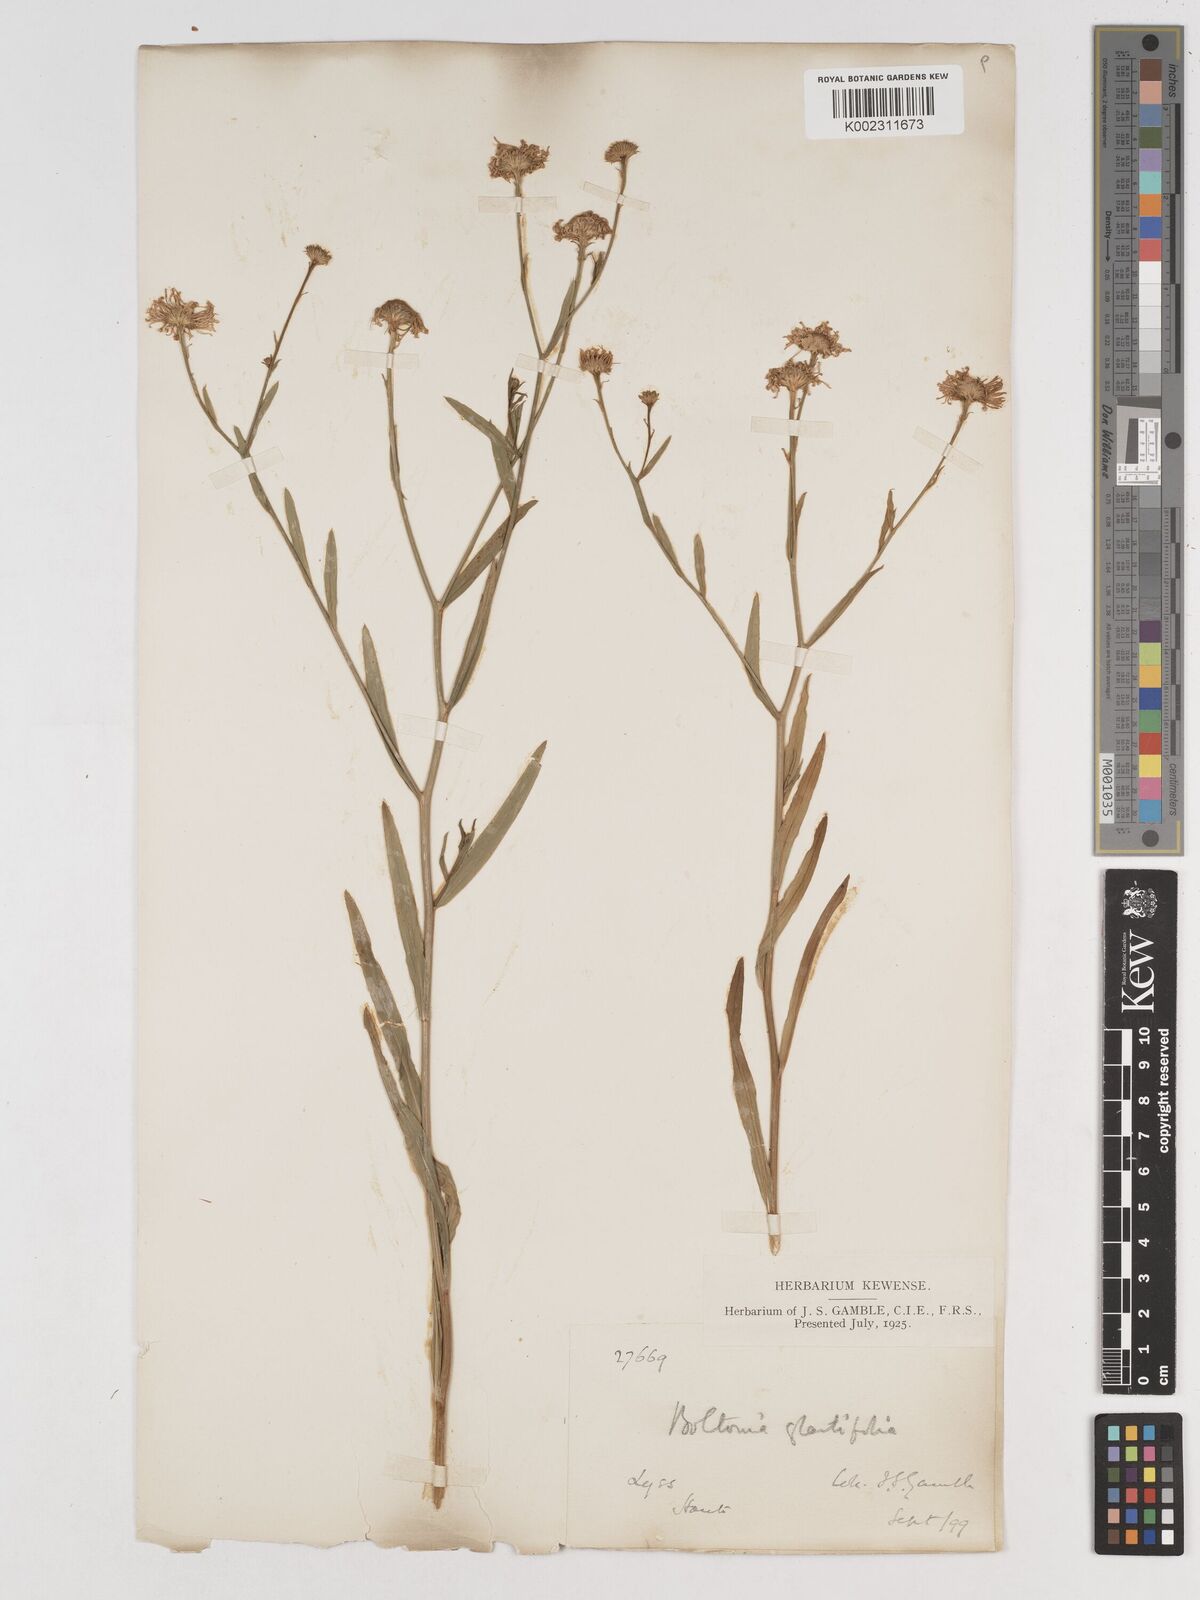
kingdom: Plantae
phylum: Tracheophyta
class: Magnoliopsida
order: Asterales
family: Asteraceae
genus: Boltonia
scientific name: Boltonia glastifolia
